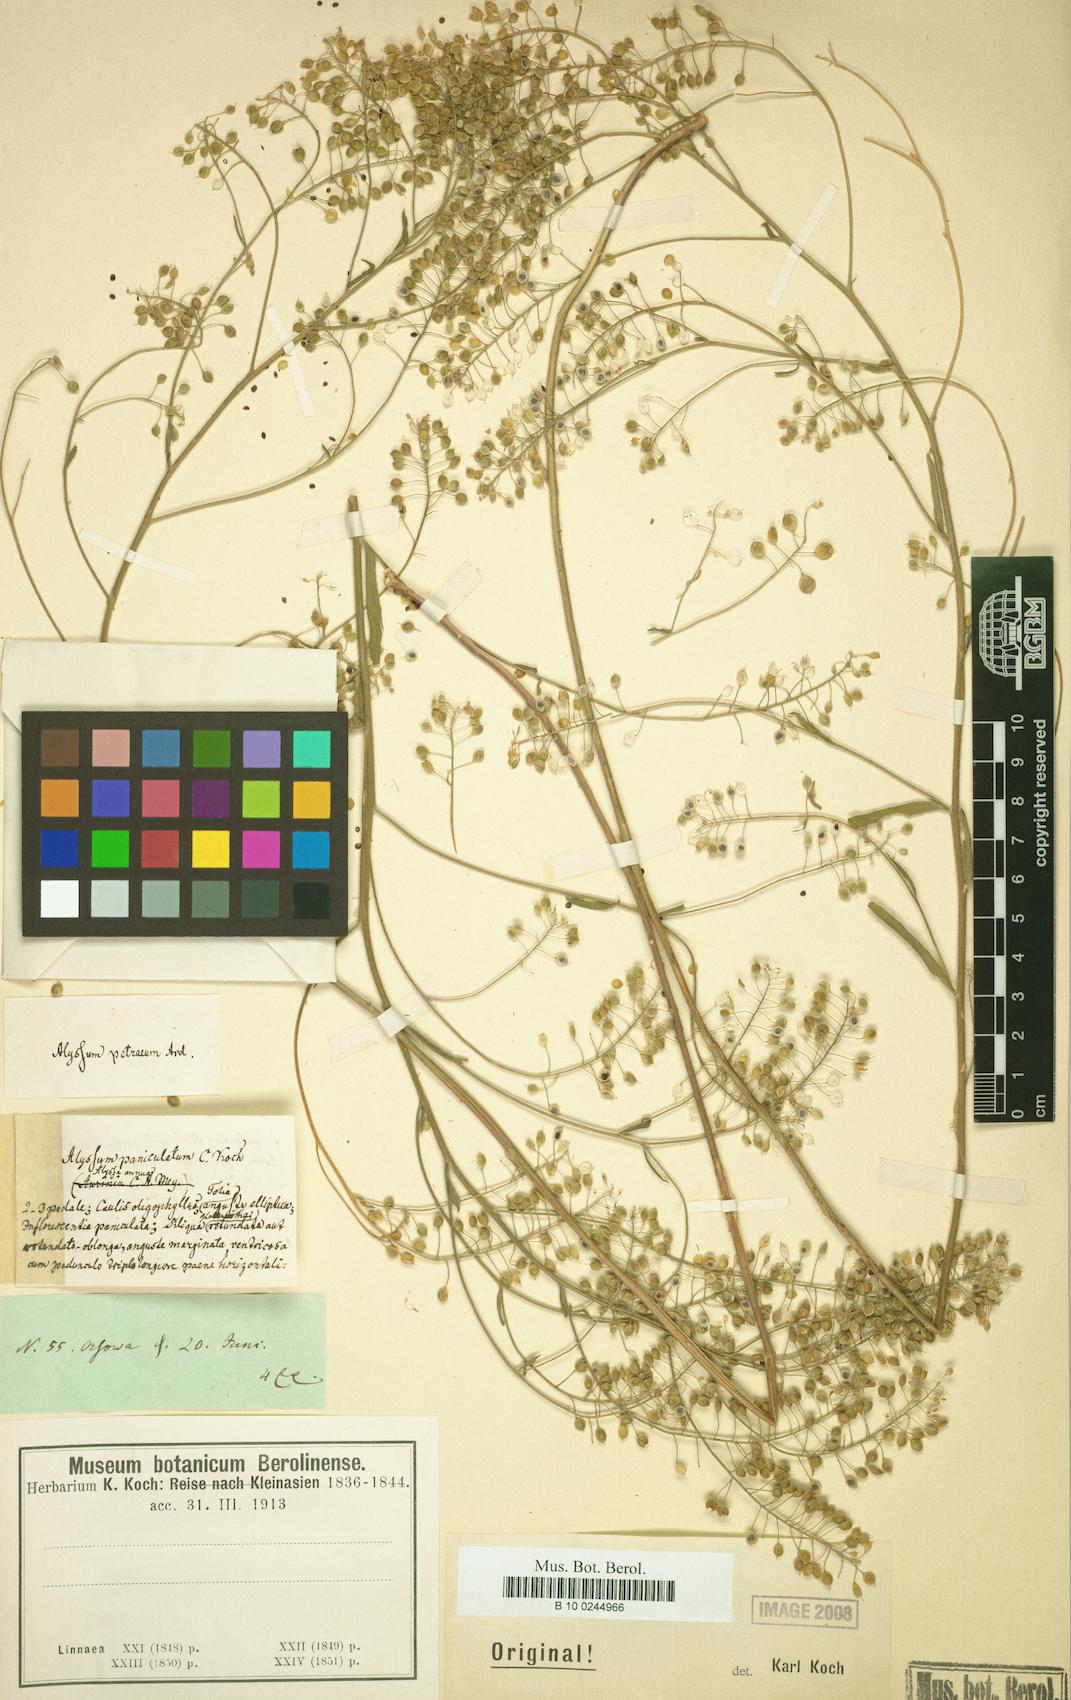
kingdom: Plantae
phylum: Tracheophyta
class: Magnoliopsida
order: Brassicales
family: Brassicaceae
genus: Lutzia
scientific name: Lutzia cretica
